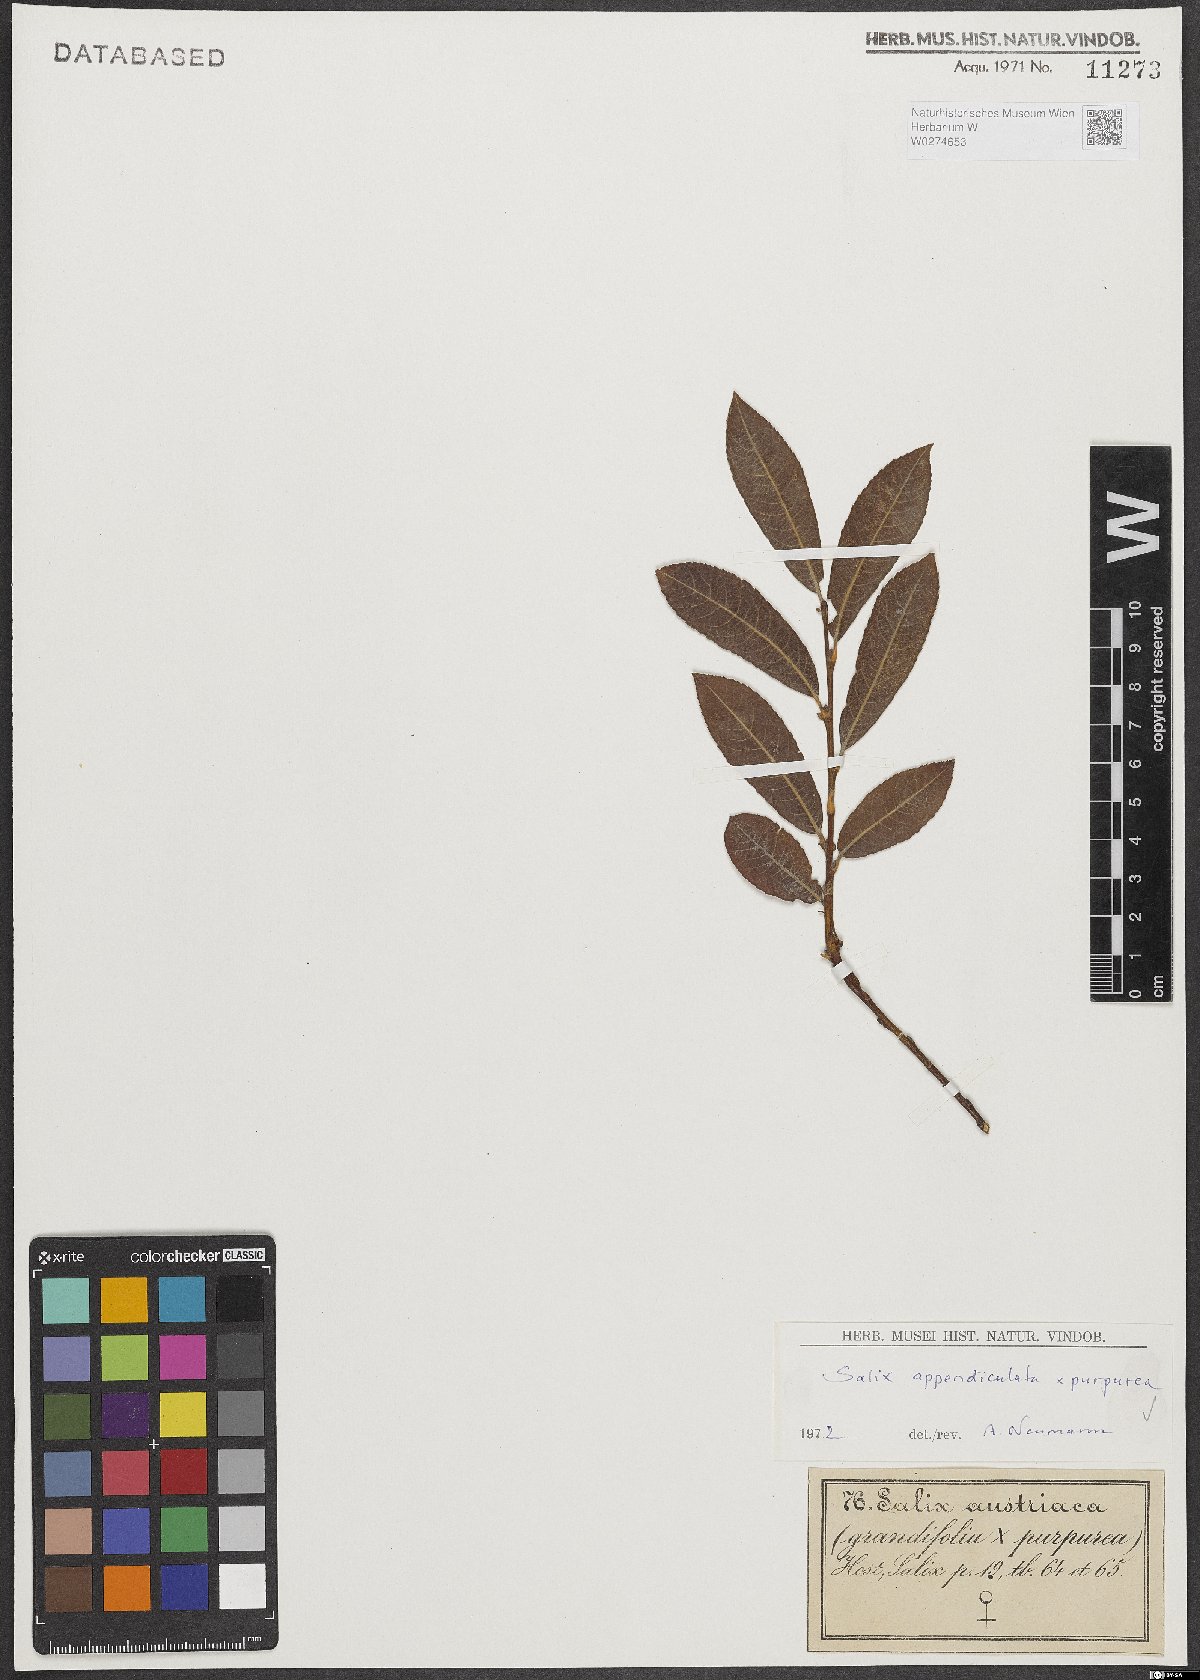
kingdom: Plantae
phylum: Tracheophyta
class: Magnoliopsida
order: Malpighiales
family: Salicaceae
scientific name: Salicaceae
